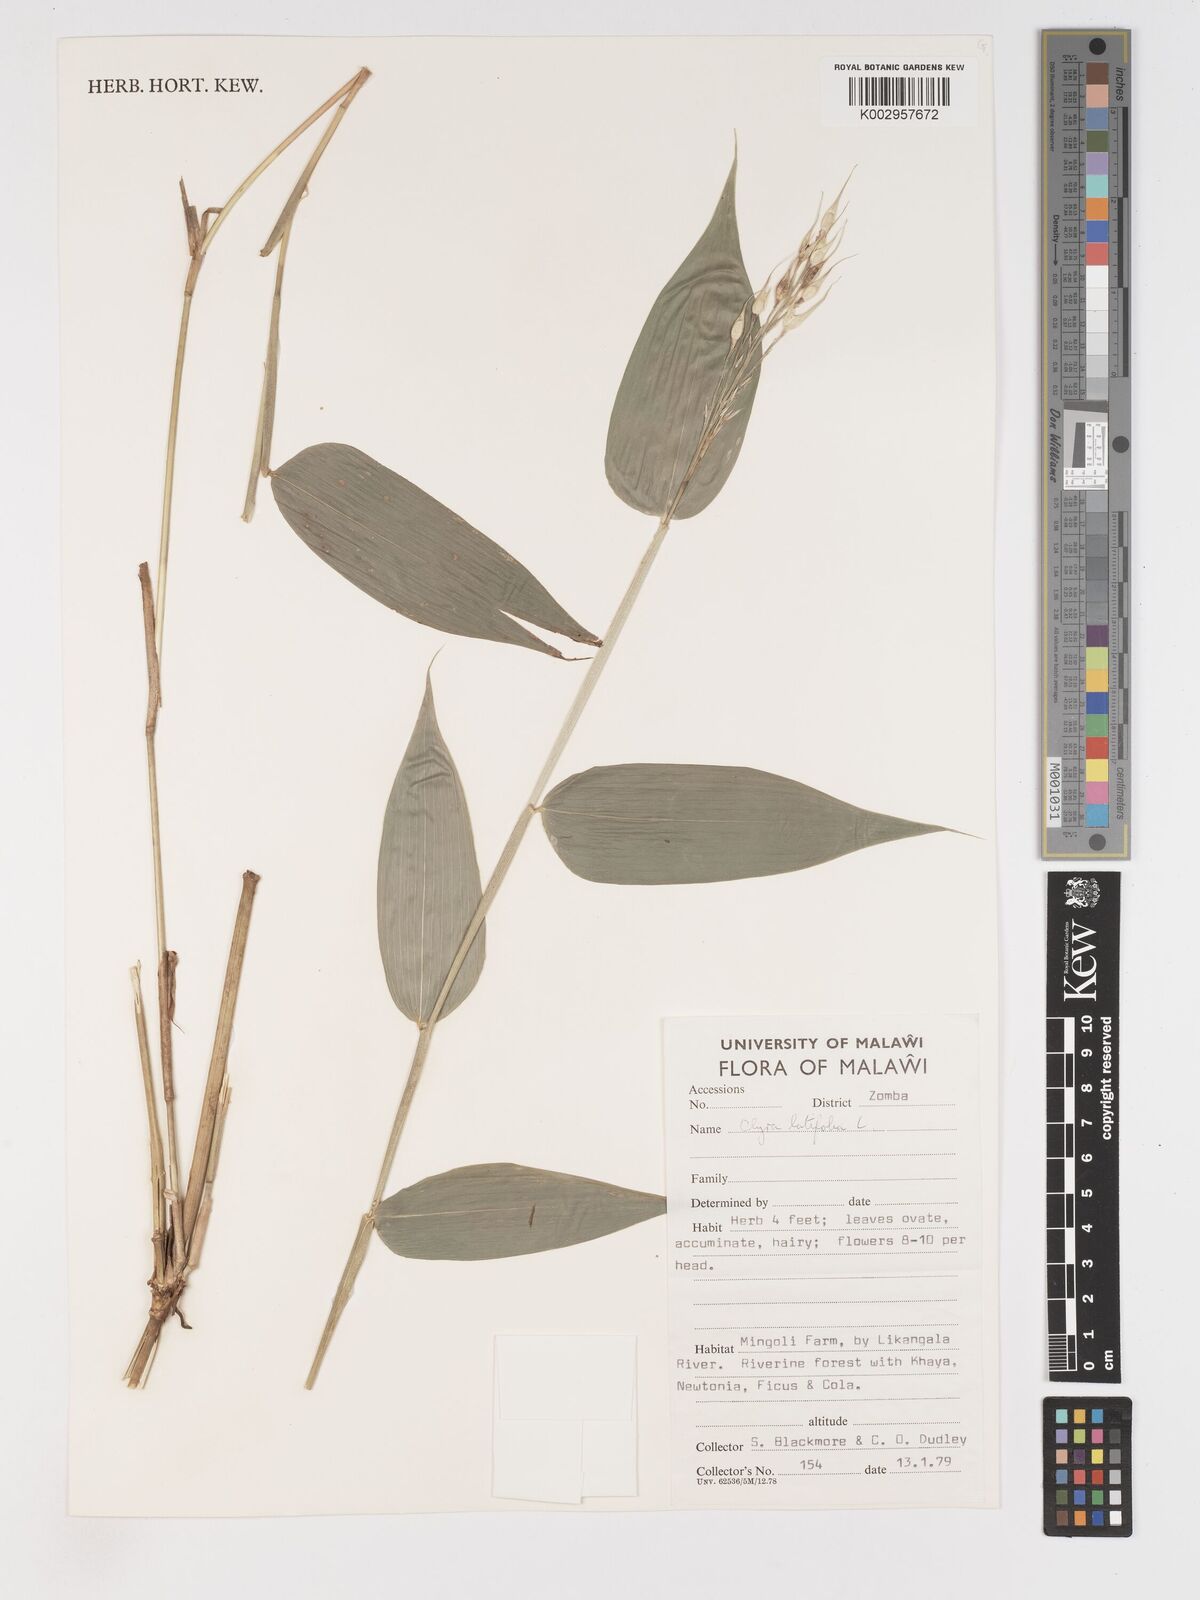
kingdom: Plantae
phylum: Tracheophyta
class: Liliopsida
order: Poales
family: Poaceae
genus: Olyra
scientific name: Olyra latifolia
